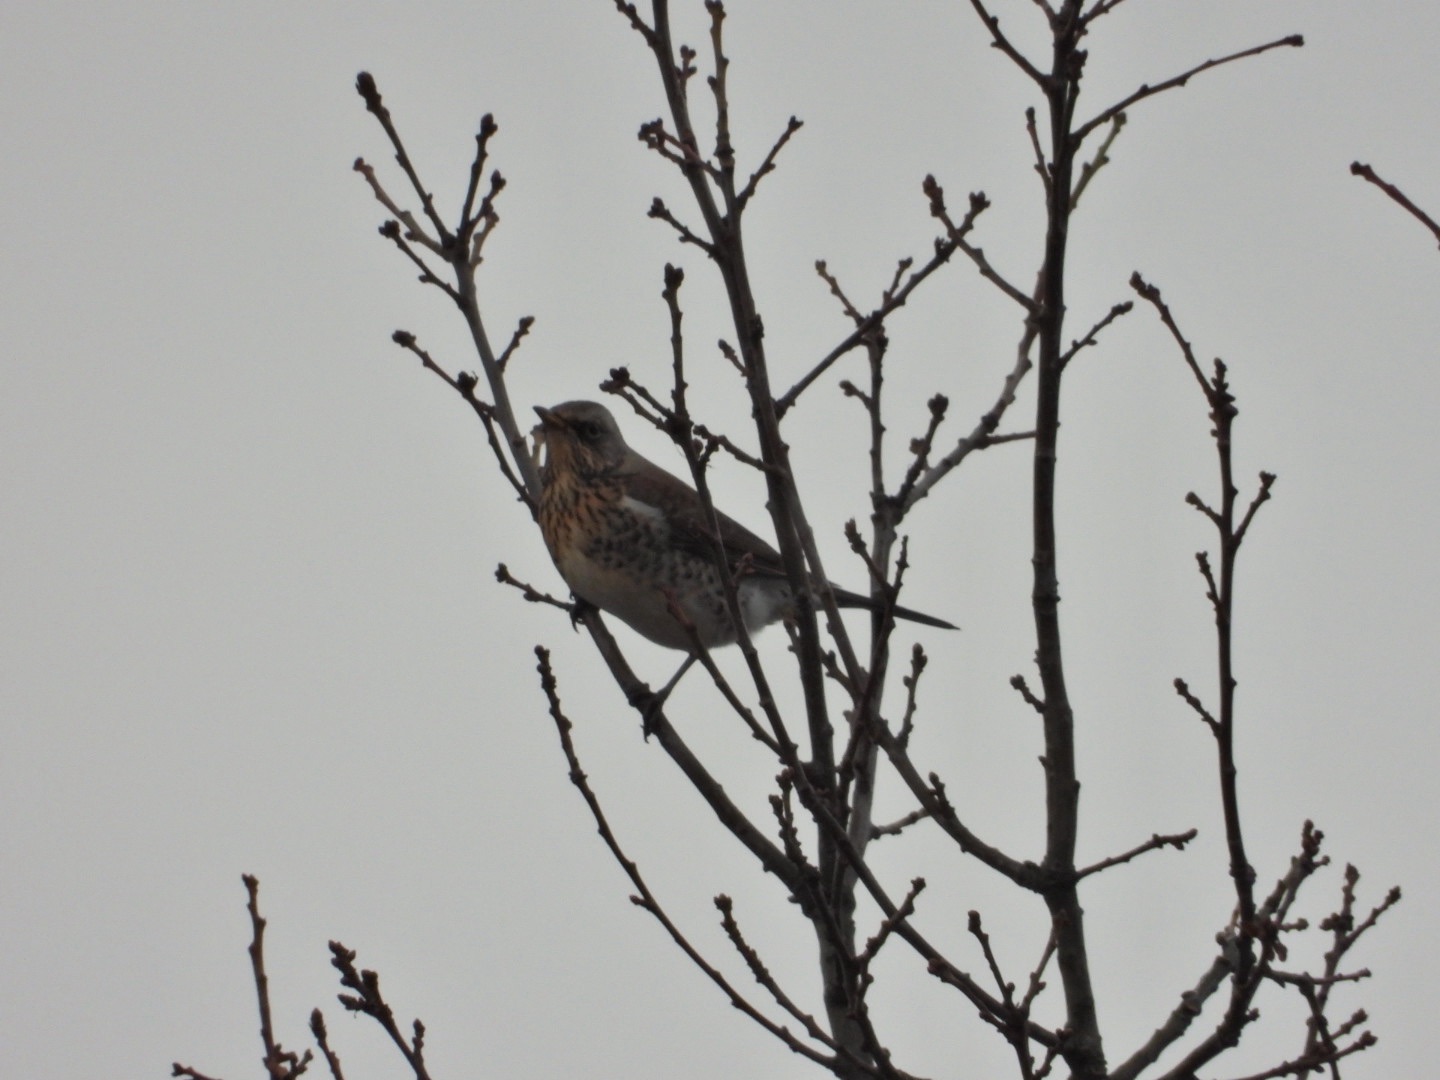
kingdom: Animalia
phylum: Chordata
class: Aves
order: Passeriformes
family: Turdidae
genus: Turdus
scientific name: Turdus pilaris
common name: Sjagger
